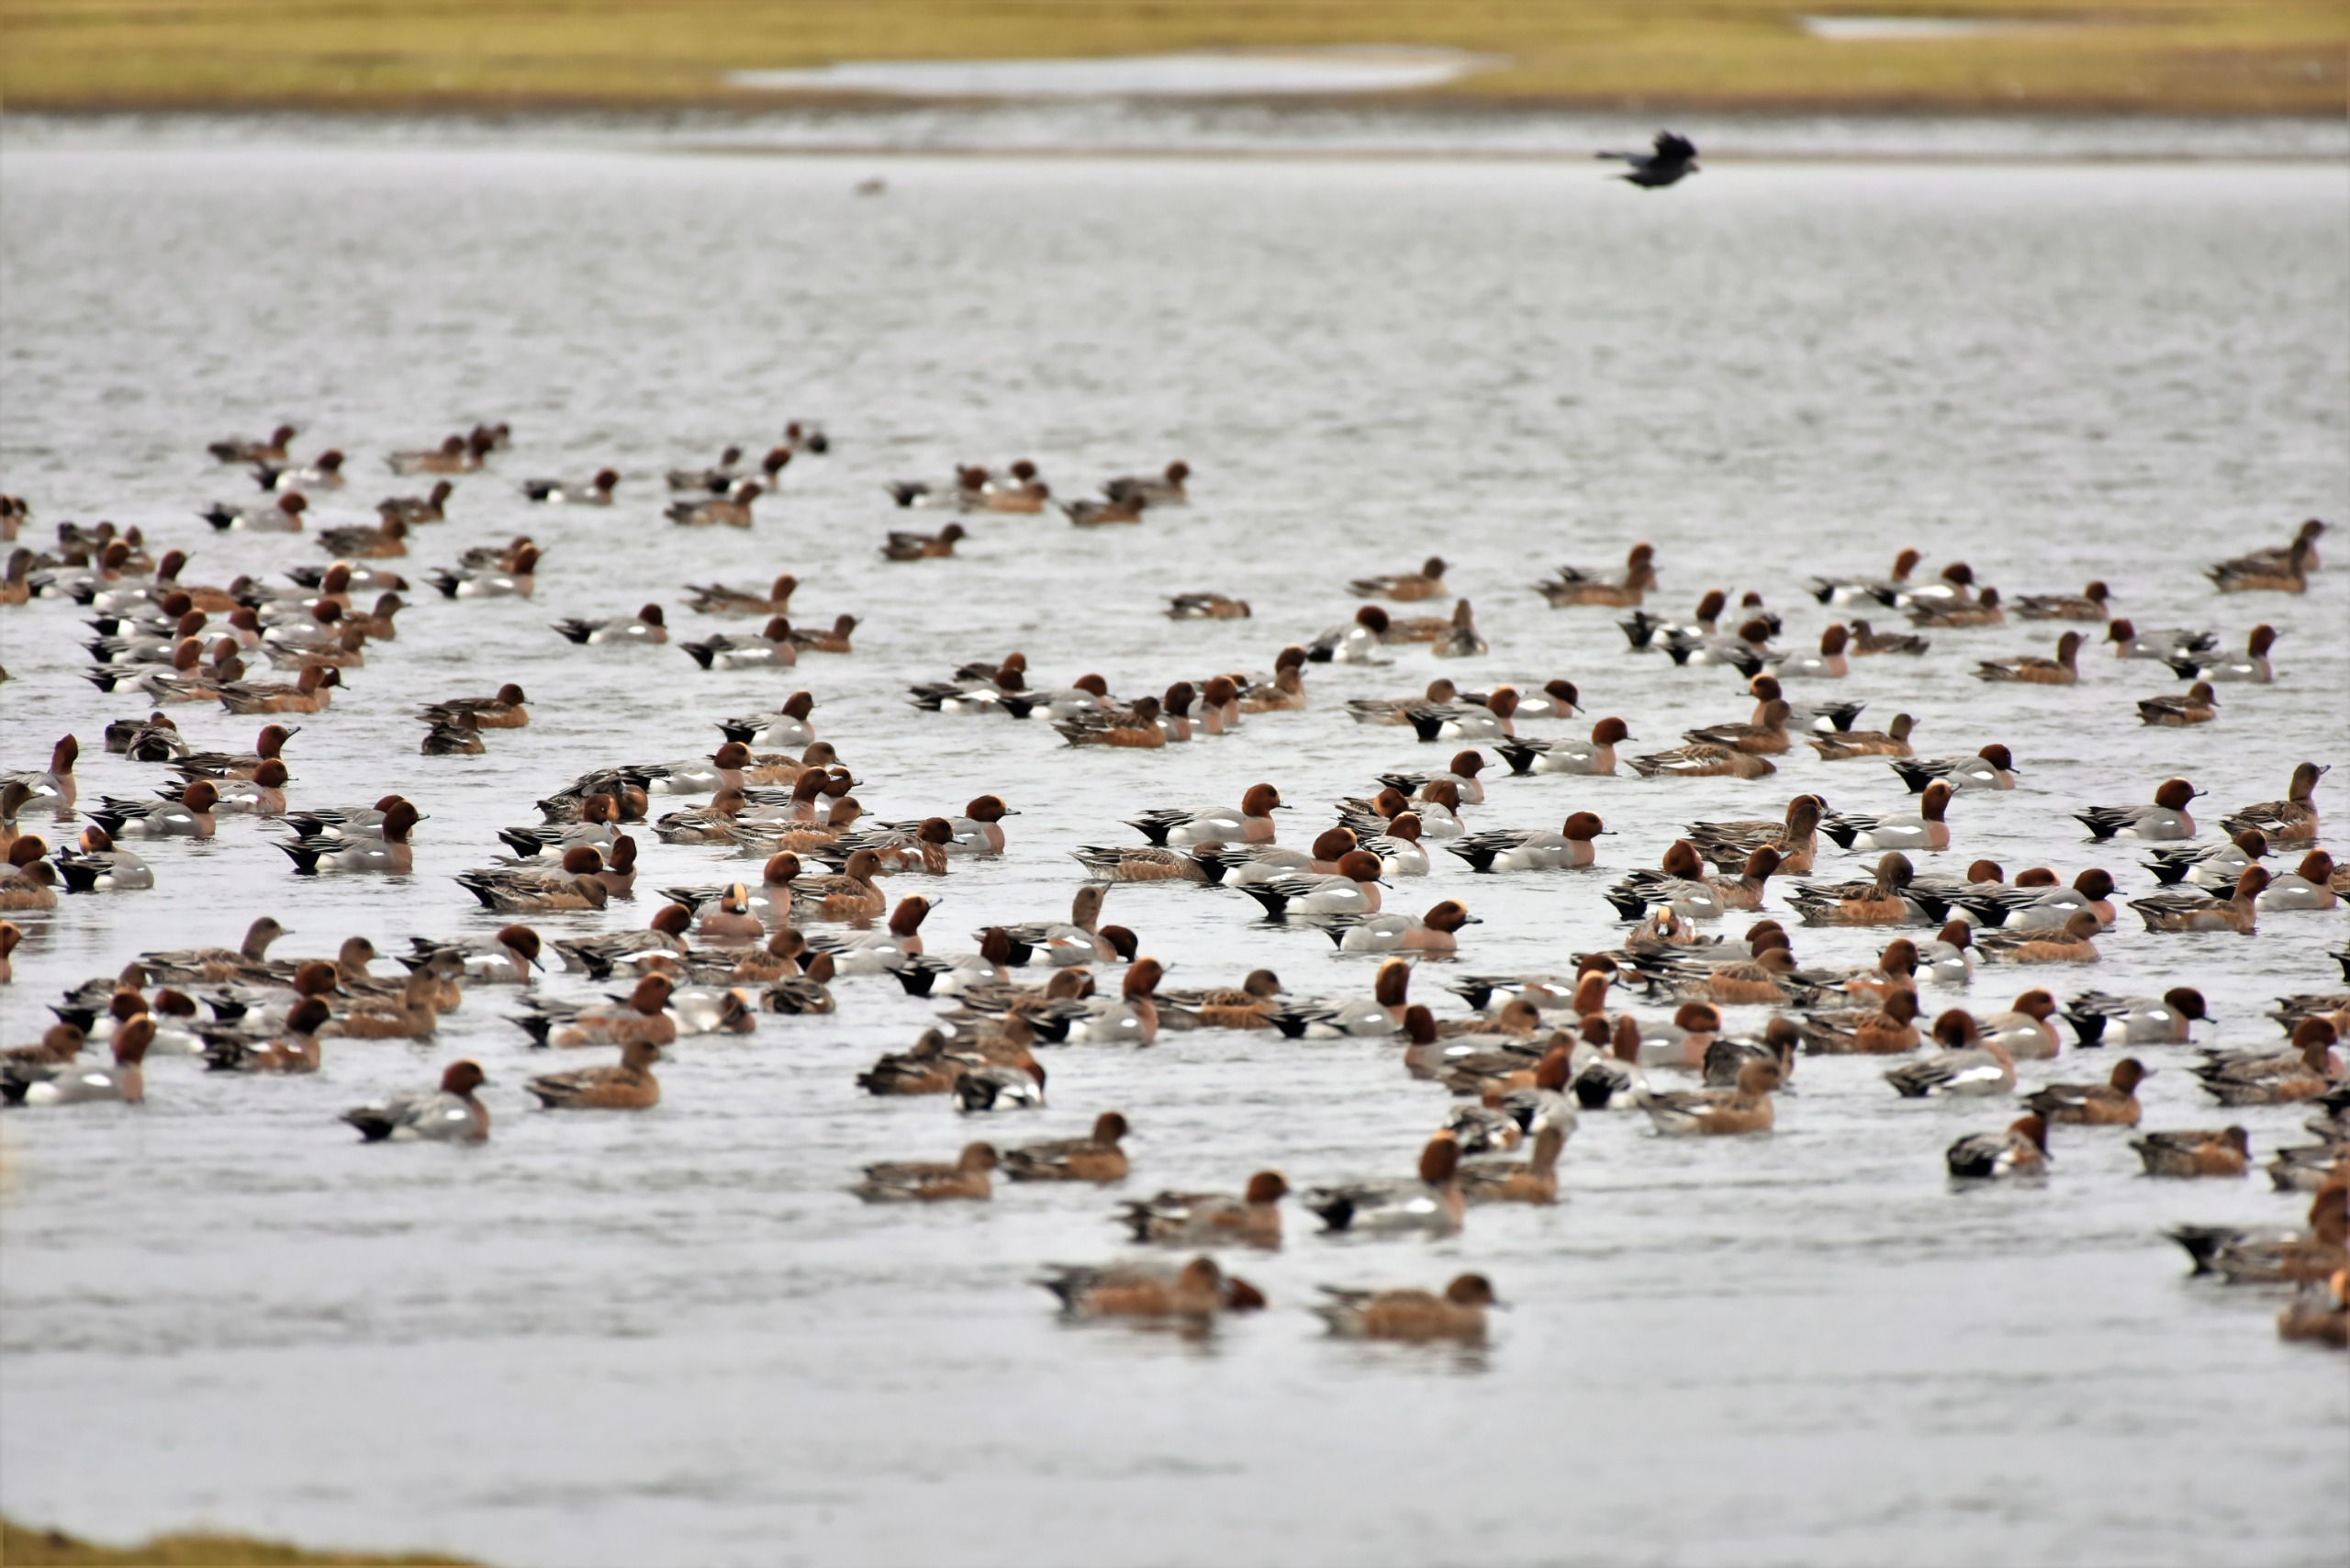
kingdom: Animalia
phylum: Chordata
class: Aves
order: Anseriformes
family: Anatidae
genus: Mareca
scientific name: Mareca penelope
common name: Pibeand
